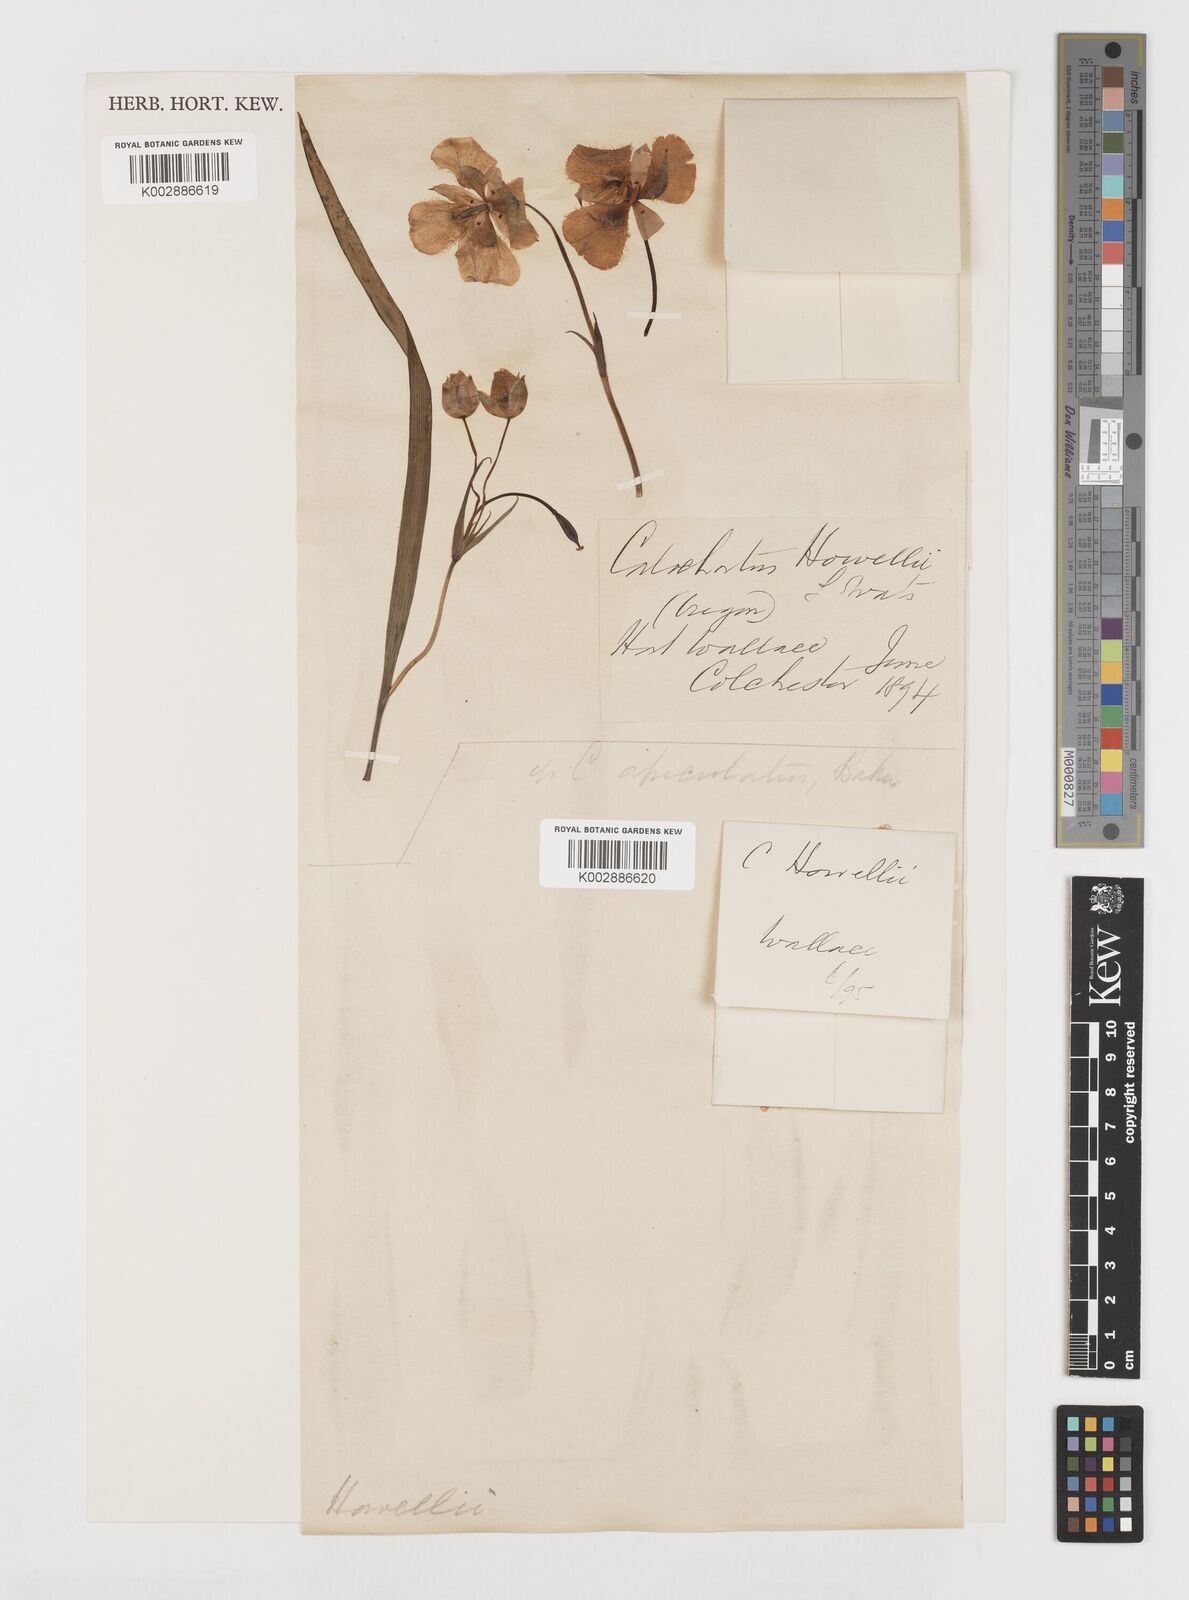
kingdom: Plantae
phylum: Tracheophyta
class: Liliopsida
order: Liliales
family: Liliaceae
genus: Calochortus
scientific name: Calochortus howellii
